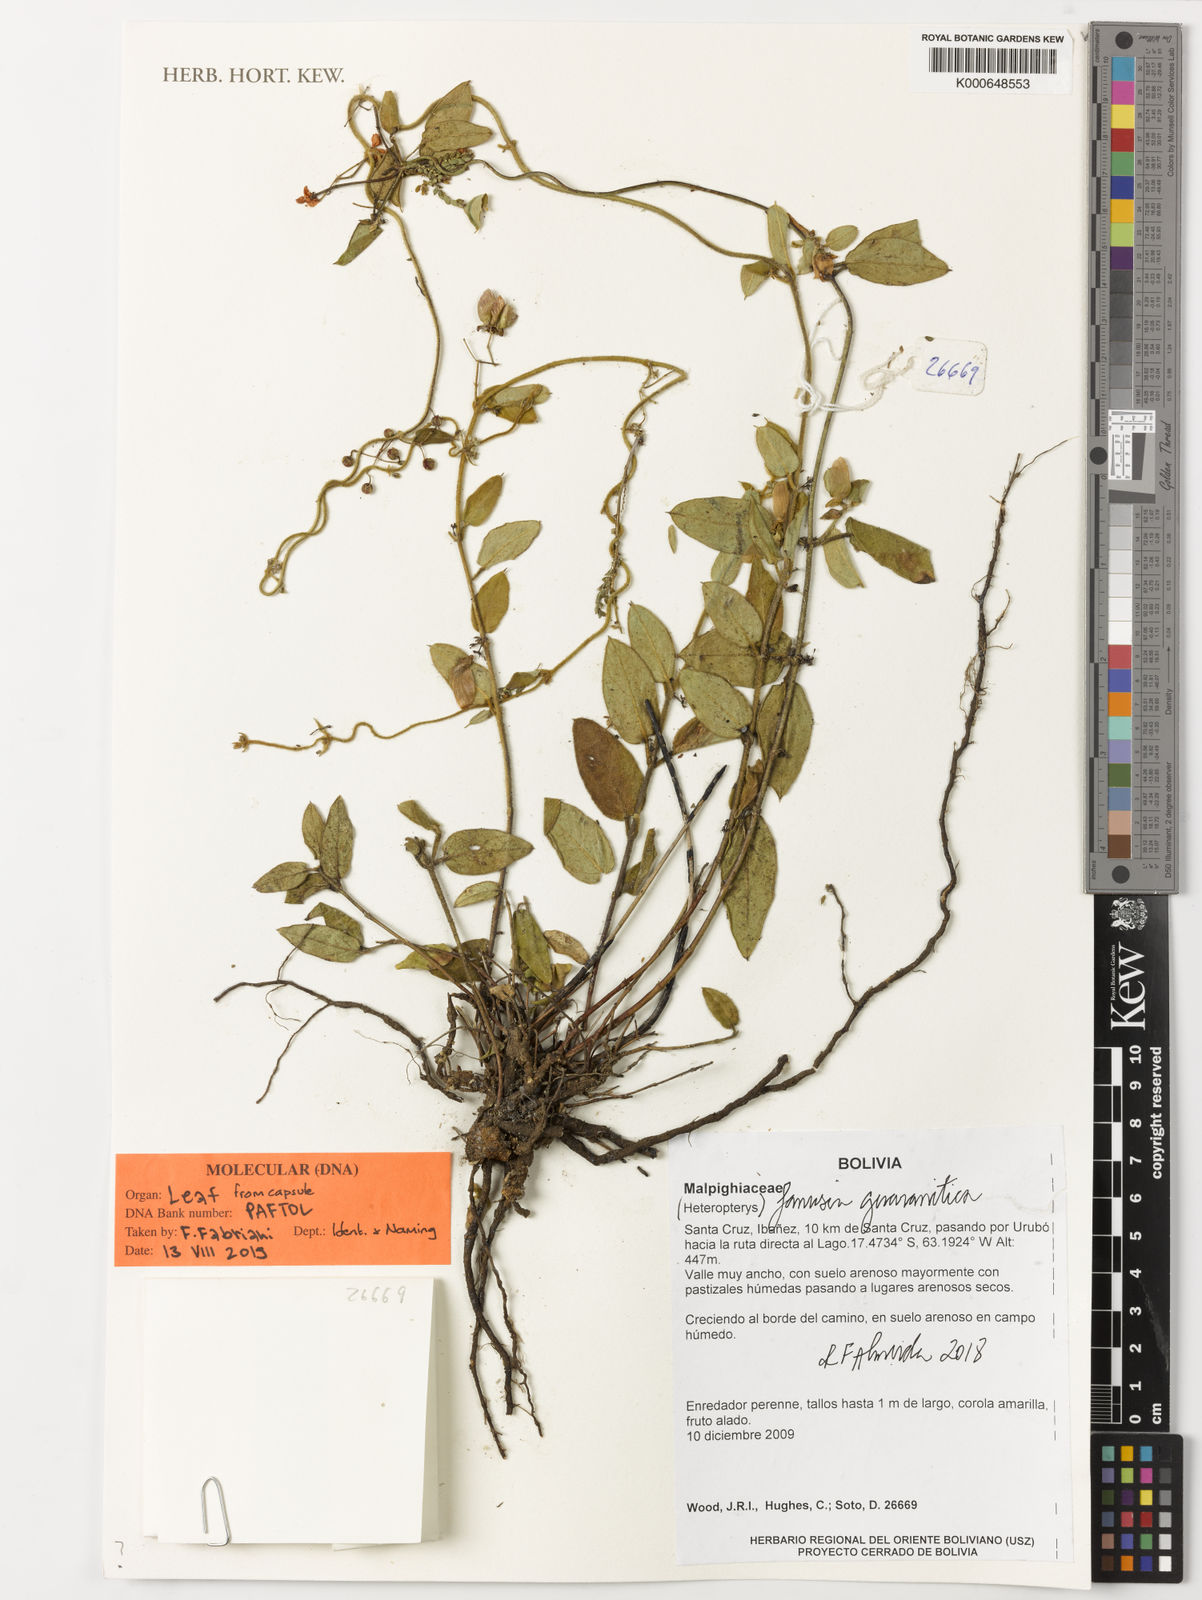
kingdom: Plantae
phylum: Tracheophyta
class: Magnoliopsida
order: Malpighiales
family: Malpighiaceae
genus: Janusia
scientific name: Janusia guaranitica
